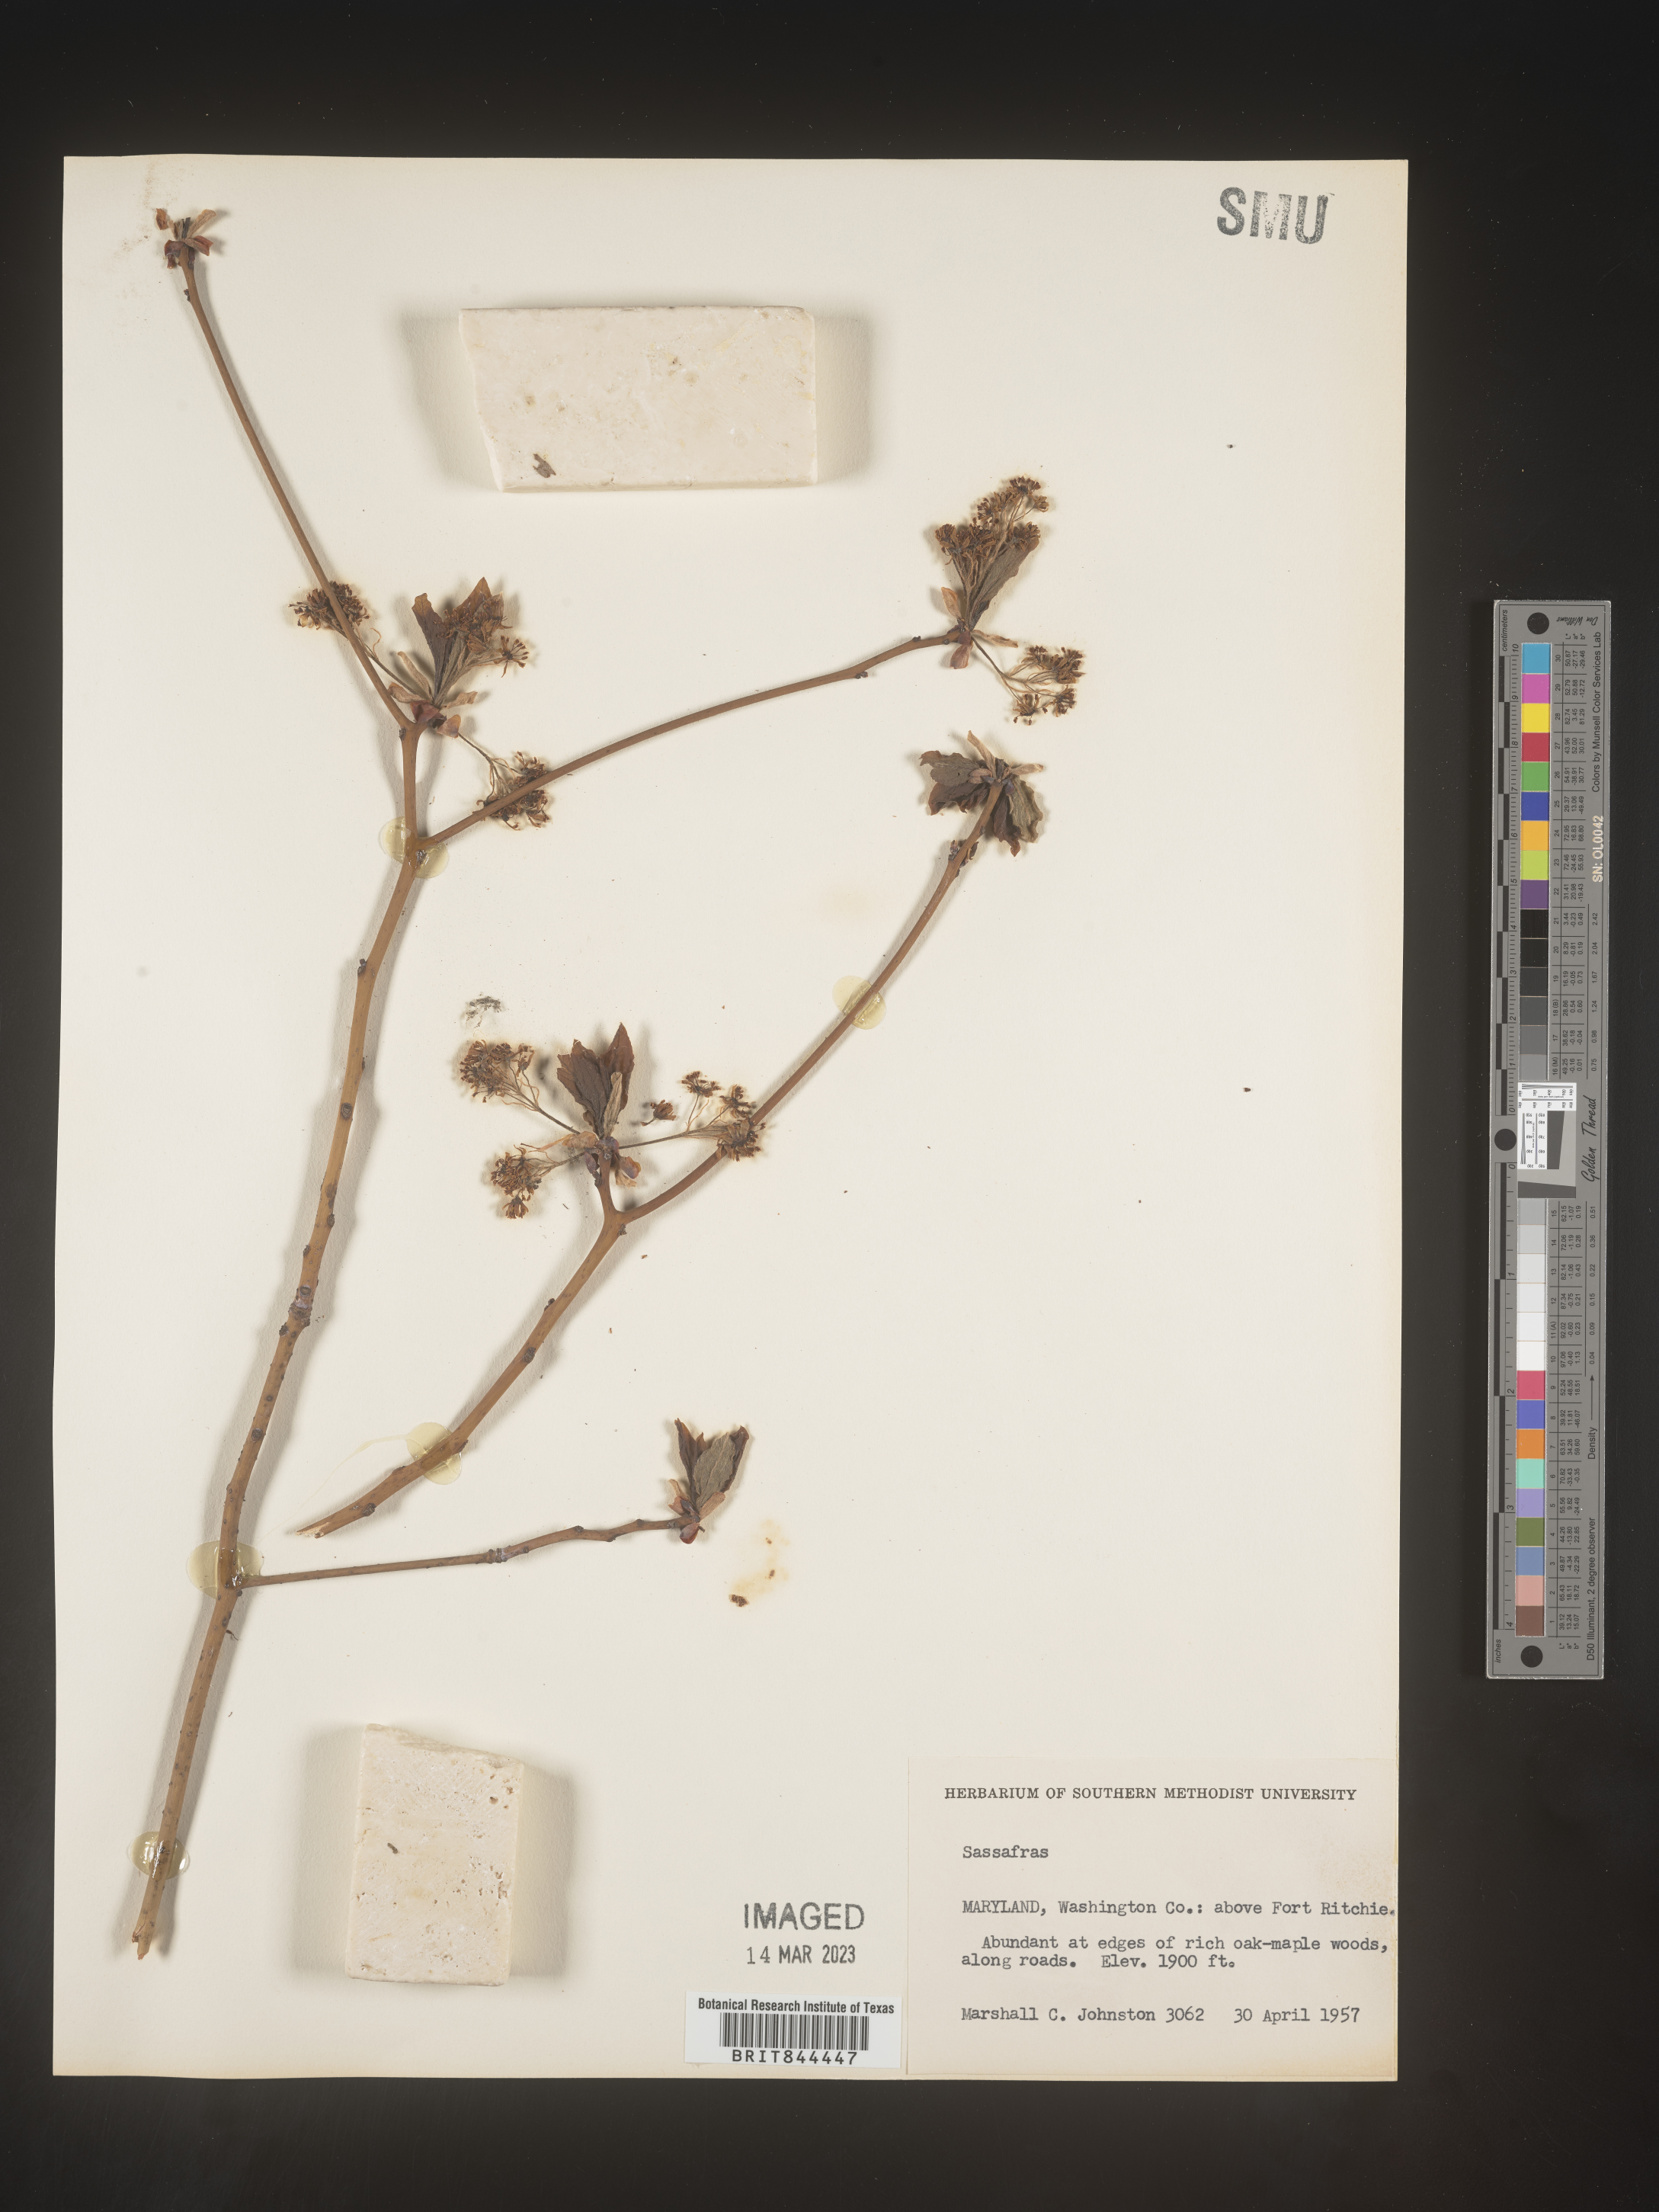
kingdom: Plantae
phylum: Tracheophyta
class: Magnoliopsida
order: Laurales
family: Lauraceae
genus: Sassafras
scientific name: Sassafras albidum
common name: Sassafras
